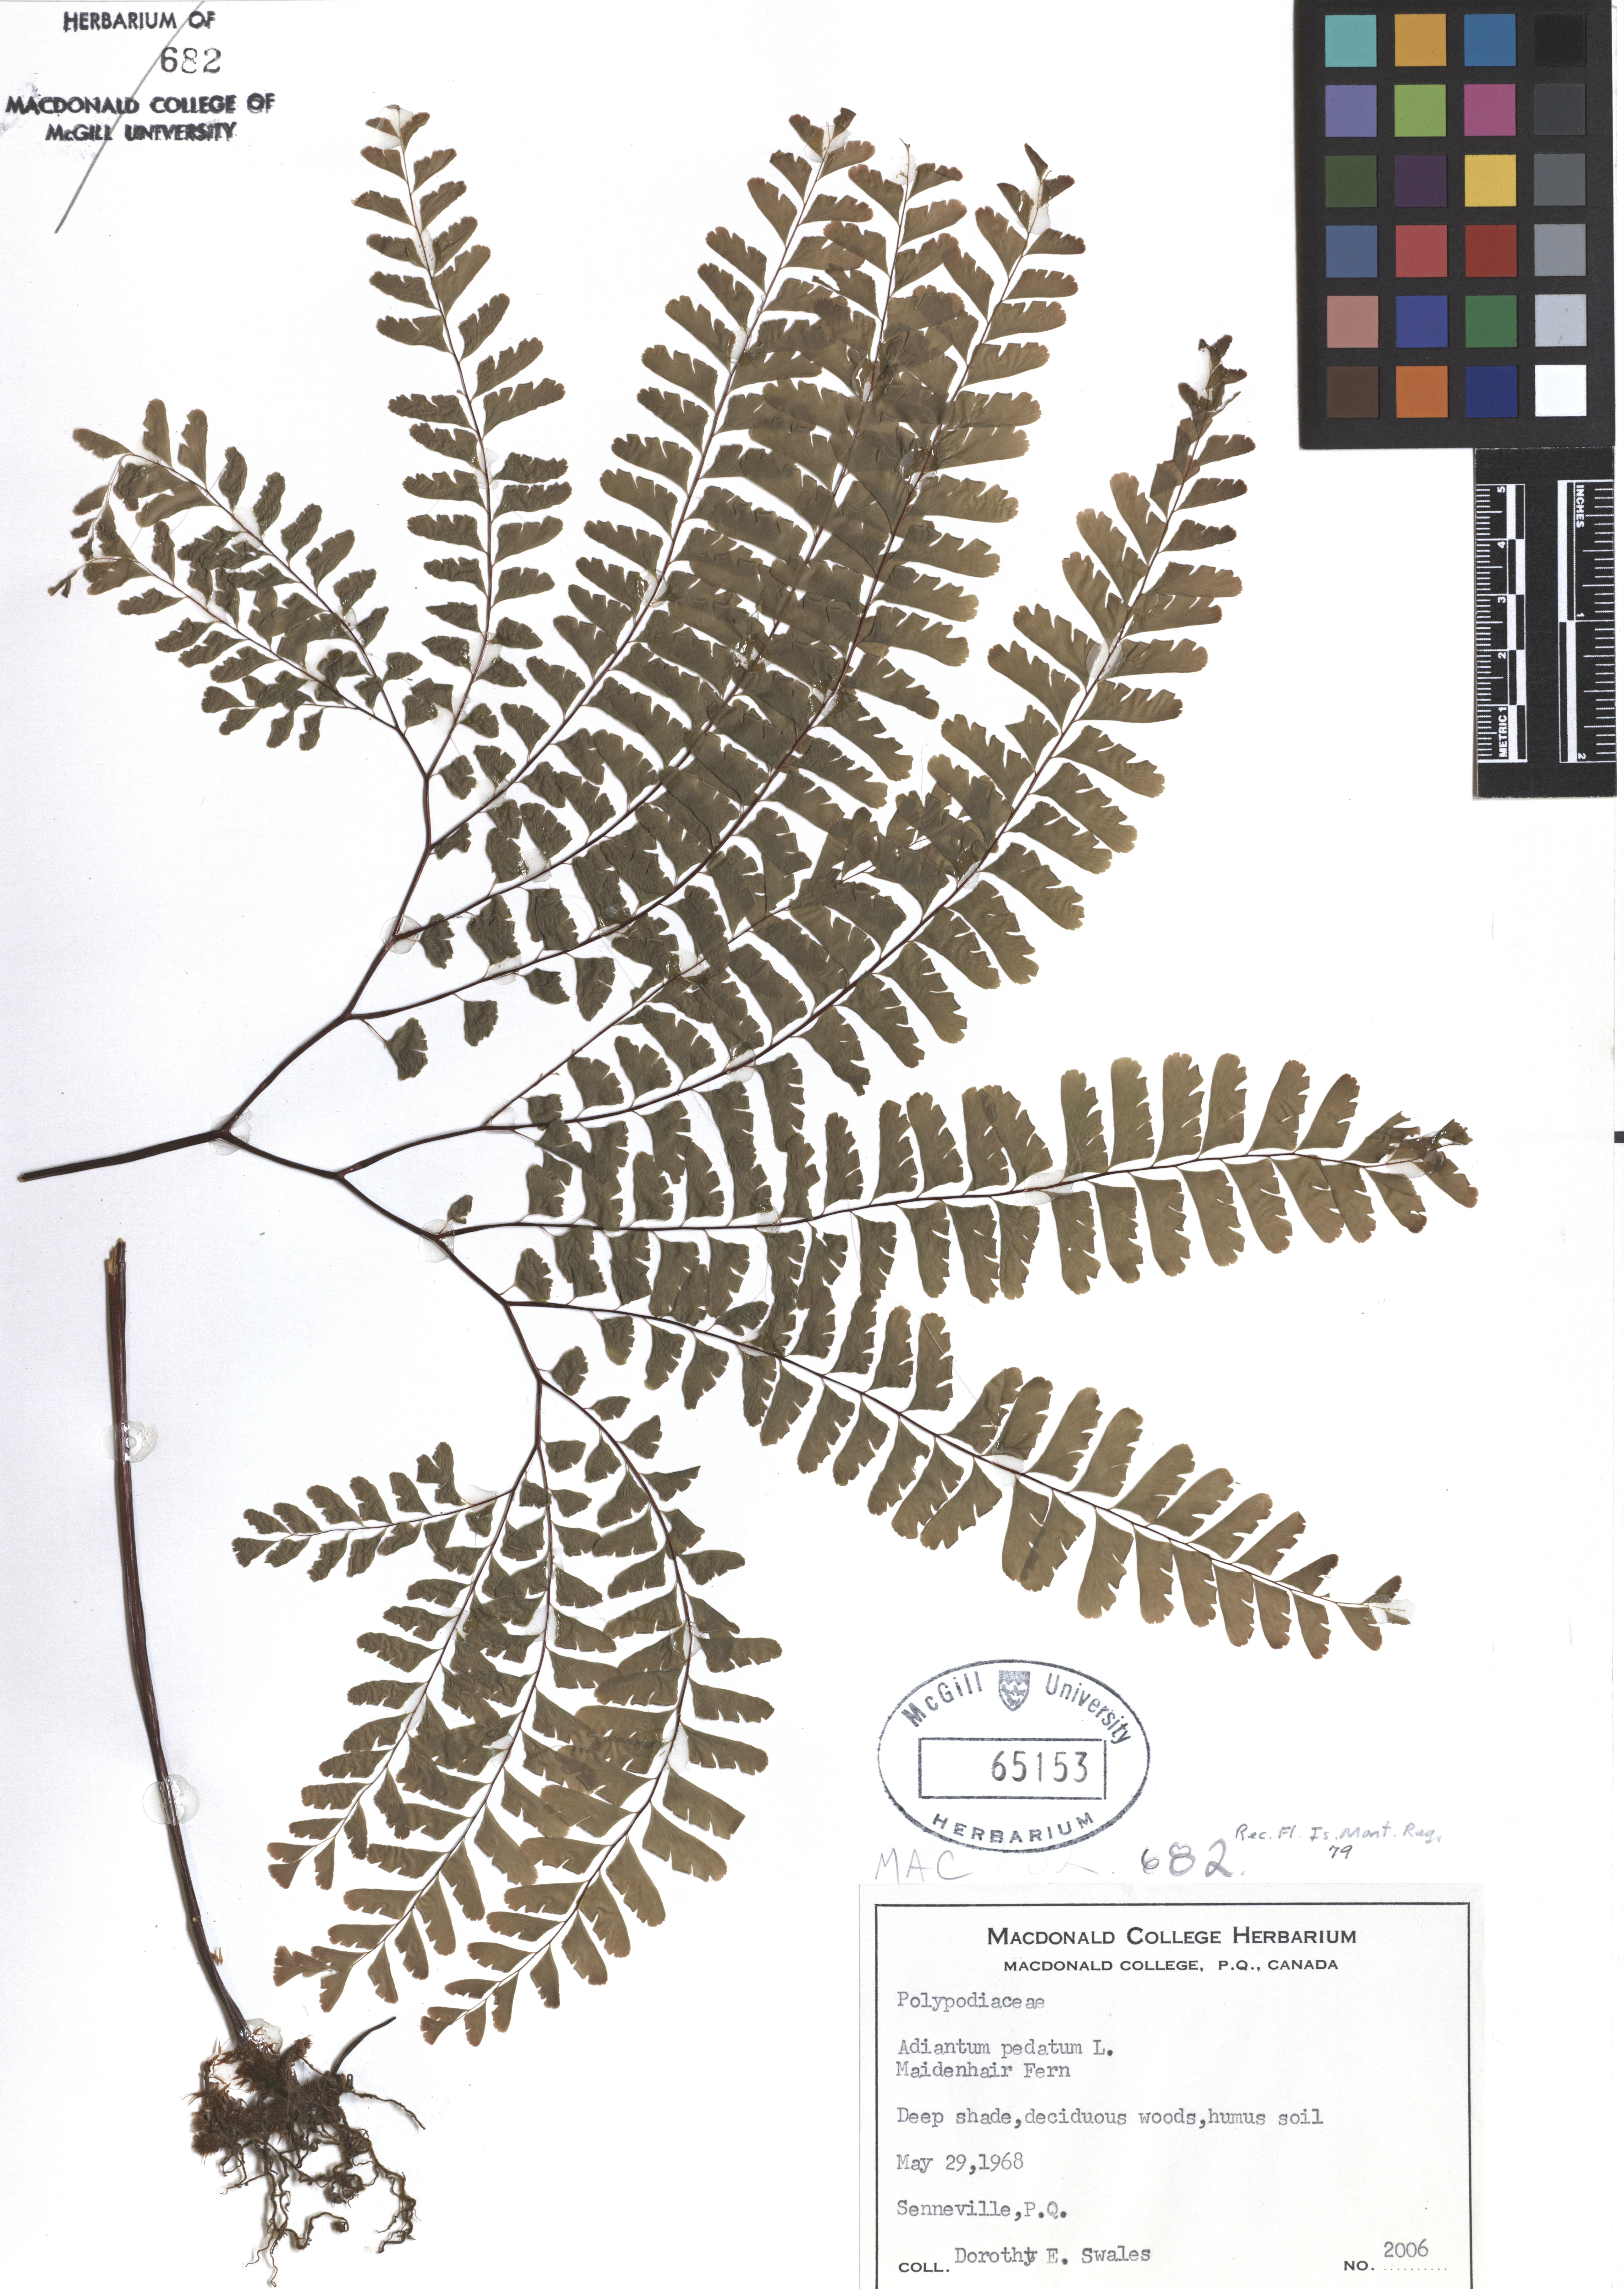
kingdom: Plantae
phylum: Tracheophyta
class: Polypodiopsida
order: Polypodiales
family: Pteridaceae
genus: Adiantum
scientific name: Adiantum pedatum
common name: Five-finger fern
